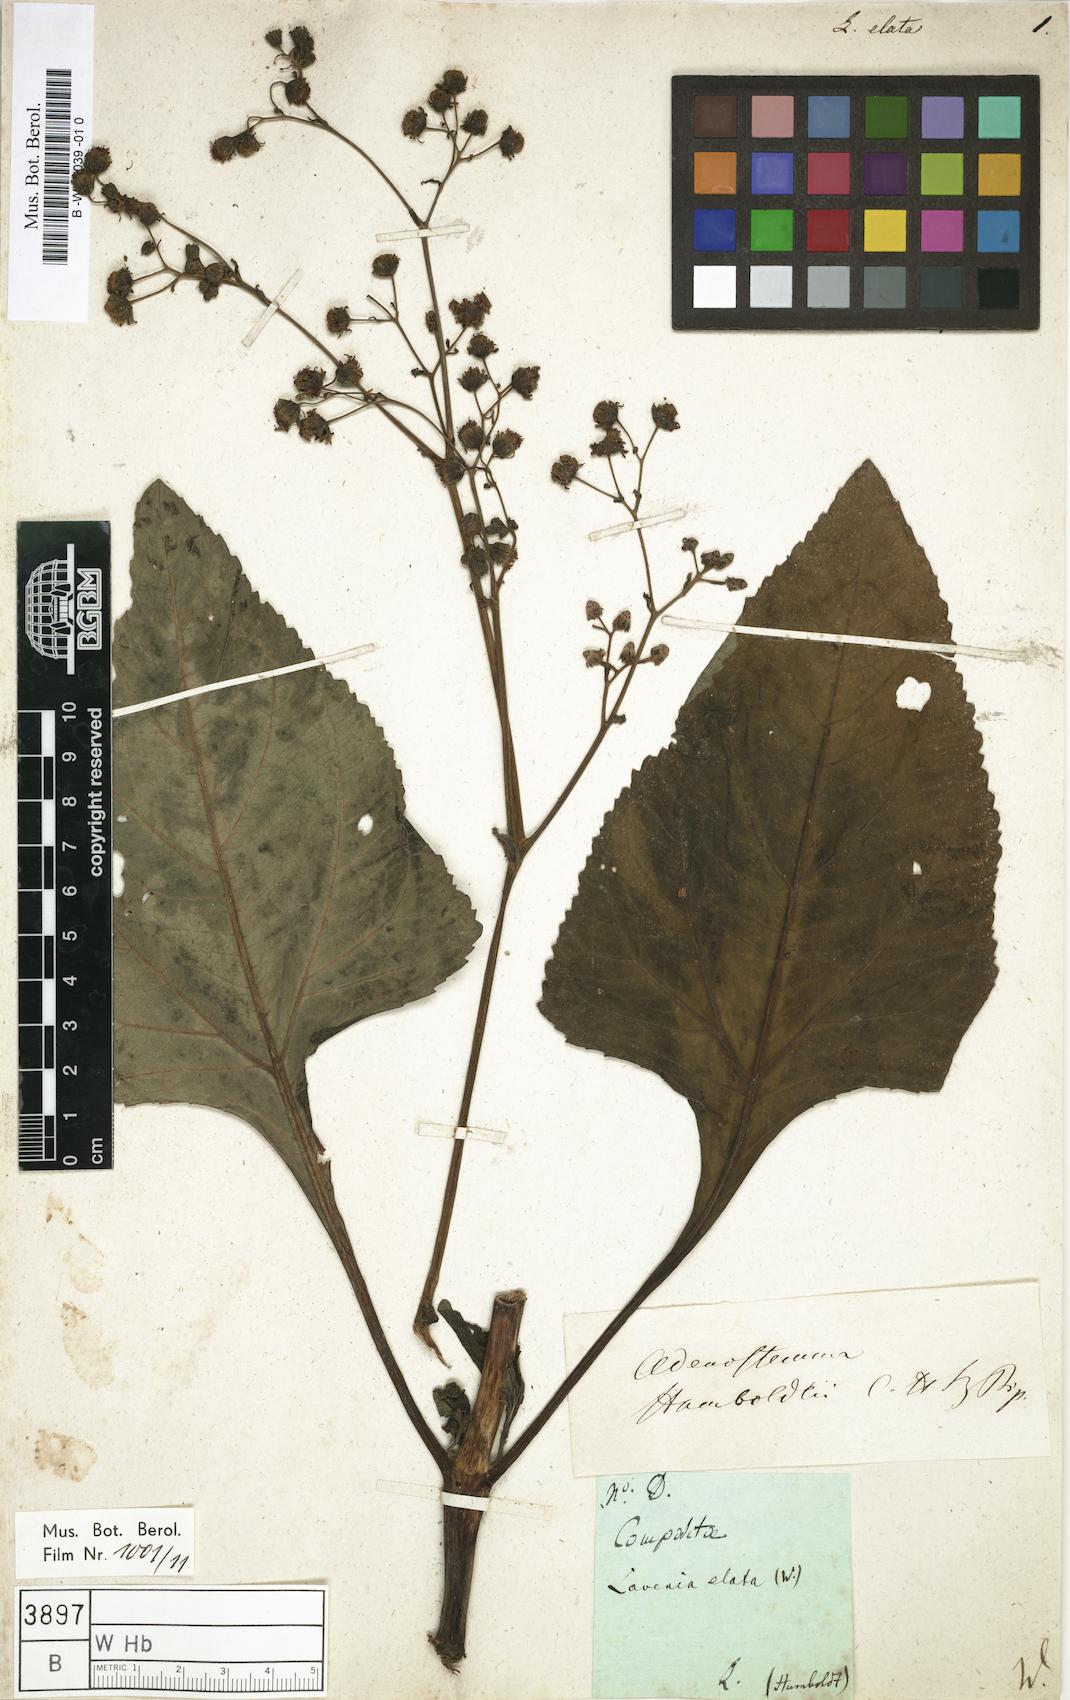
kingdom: Plantae
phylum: Tracheophyta
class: Magnoliopsida
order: Asterales
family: Asteraceae
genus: Adenostemma
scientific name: Adenostemma lavenia
